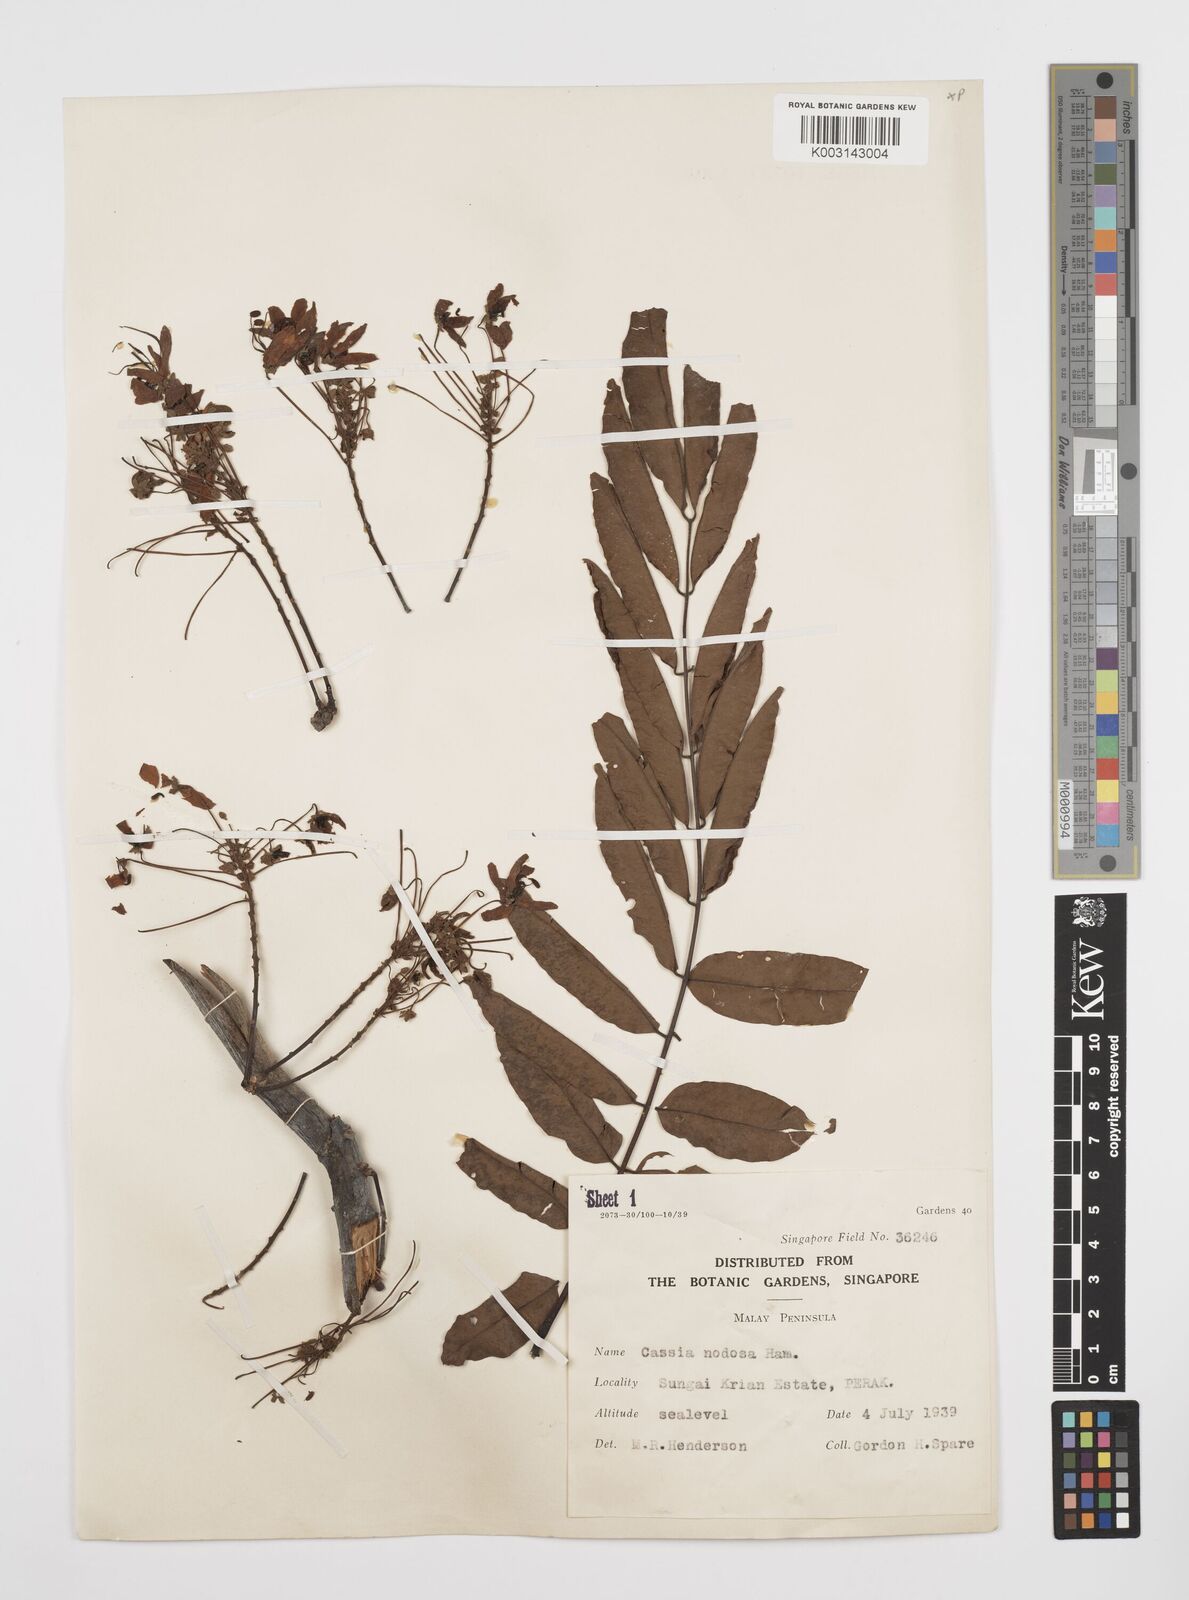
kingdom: Plantae
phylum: Tracheophyta
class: Magnoliopsida
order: Fabales
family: Fabaceae
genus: Cassia
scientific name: Cassia javanica
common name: Apple blossom
